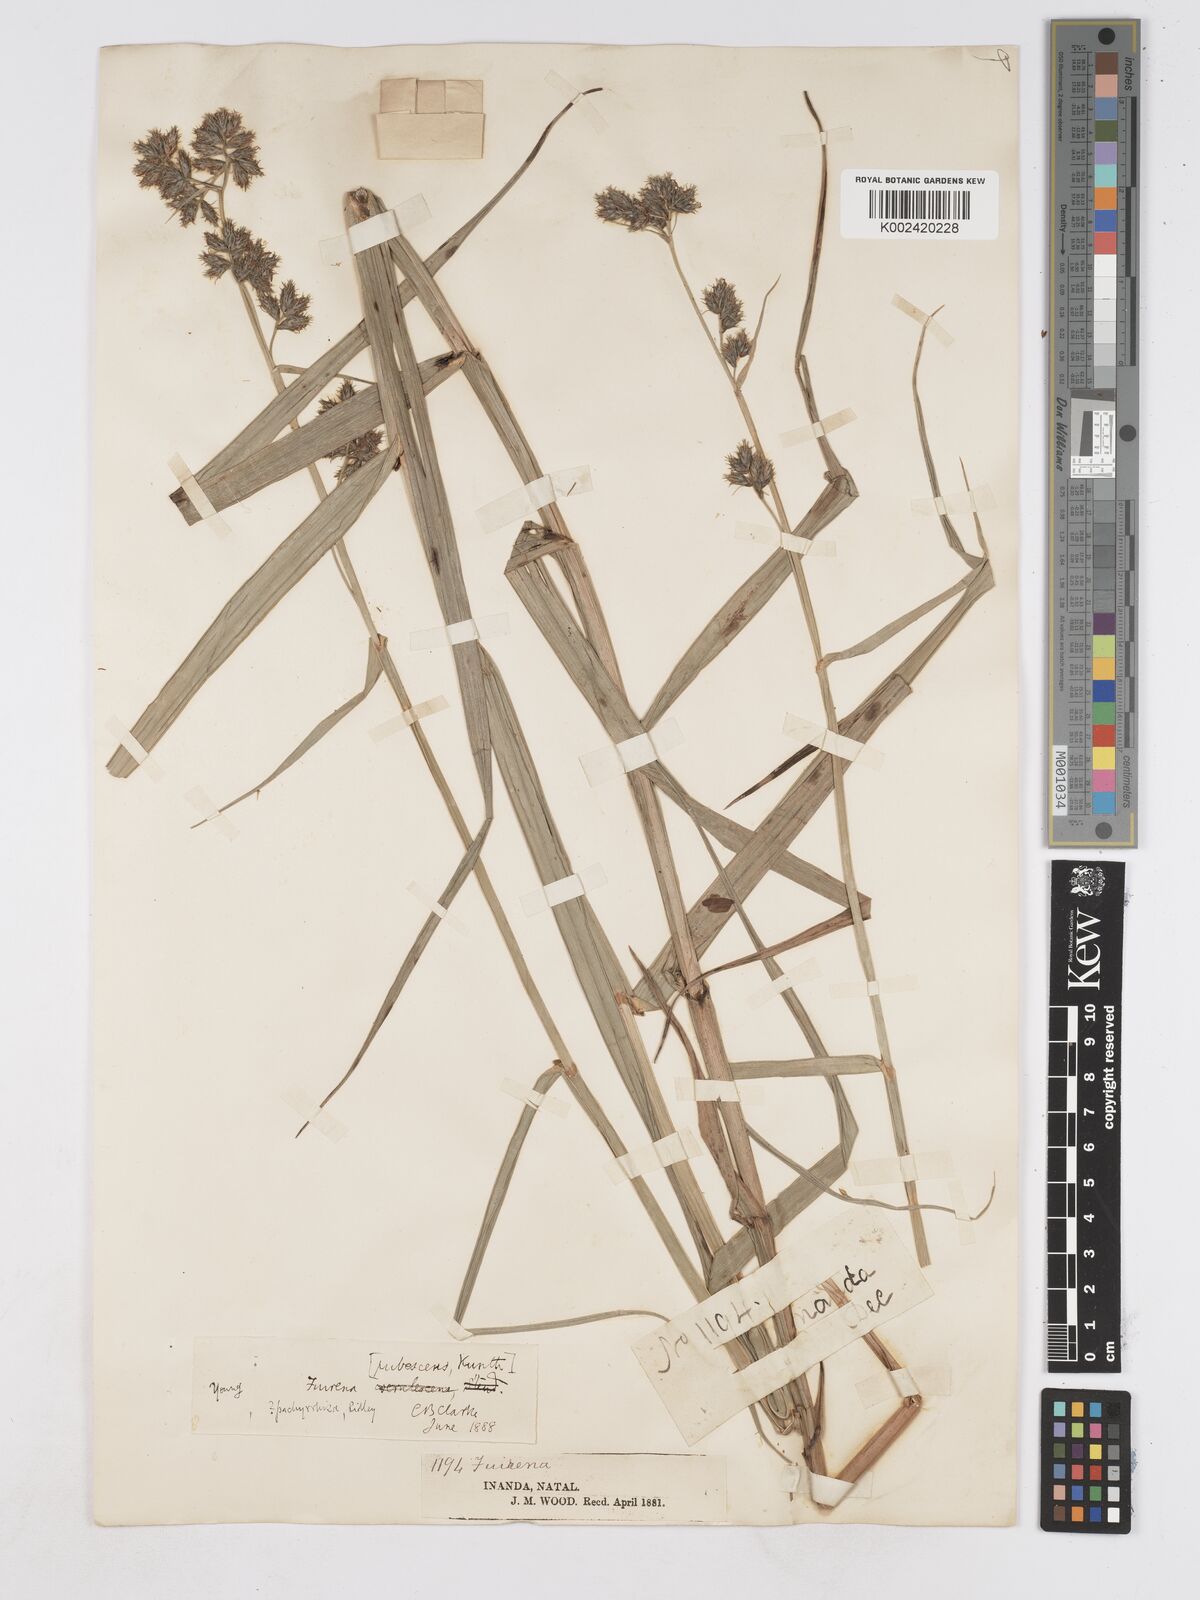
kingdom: Plantae
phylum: Tracheophyta
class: Liliopsida
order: Poales
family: Cyperaceae
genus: Fuirena
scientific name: Fuirena pachyrrhiza
